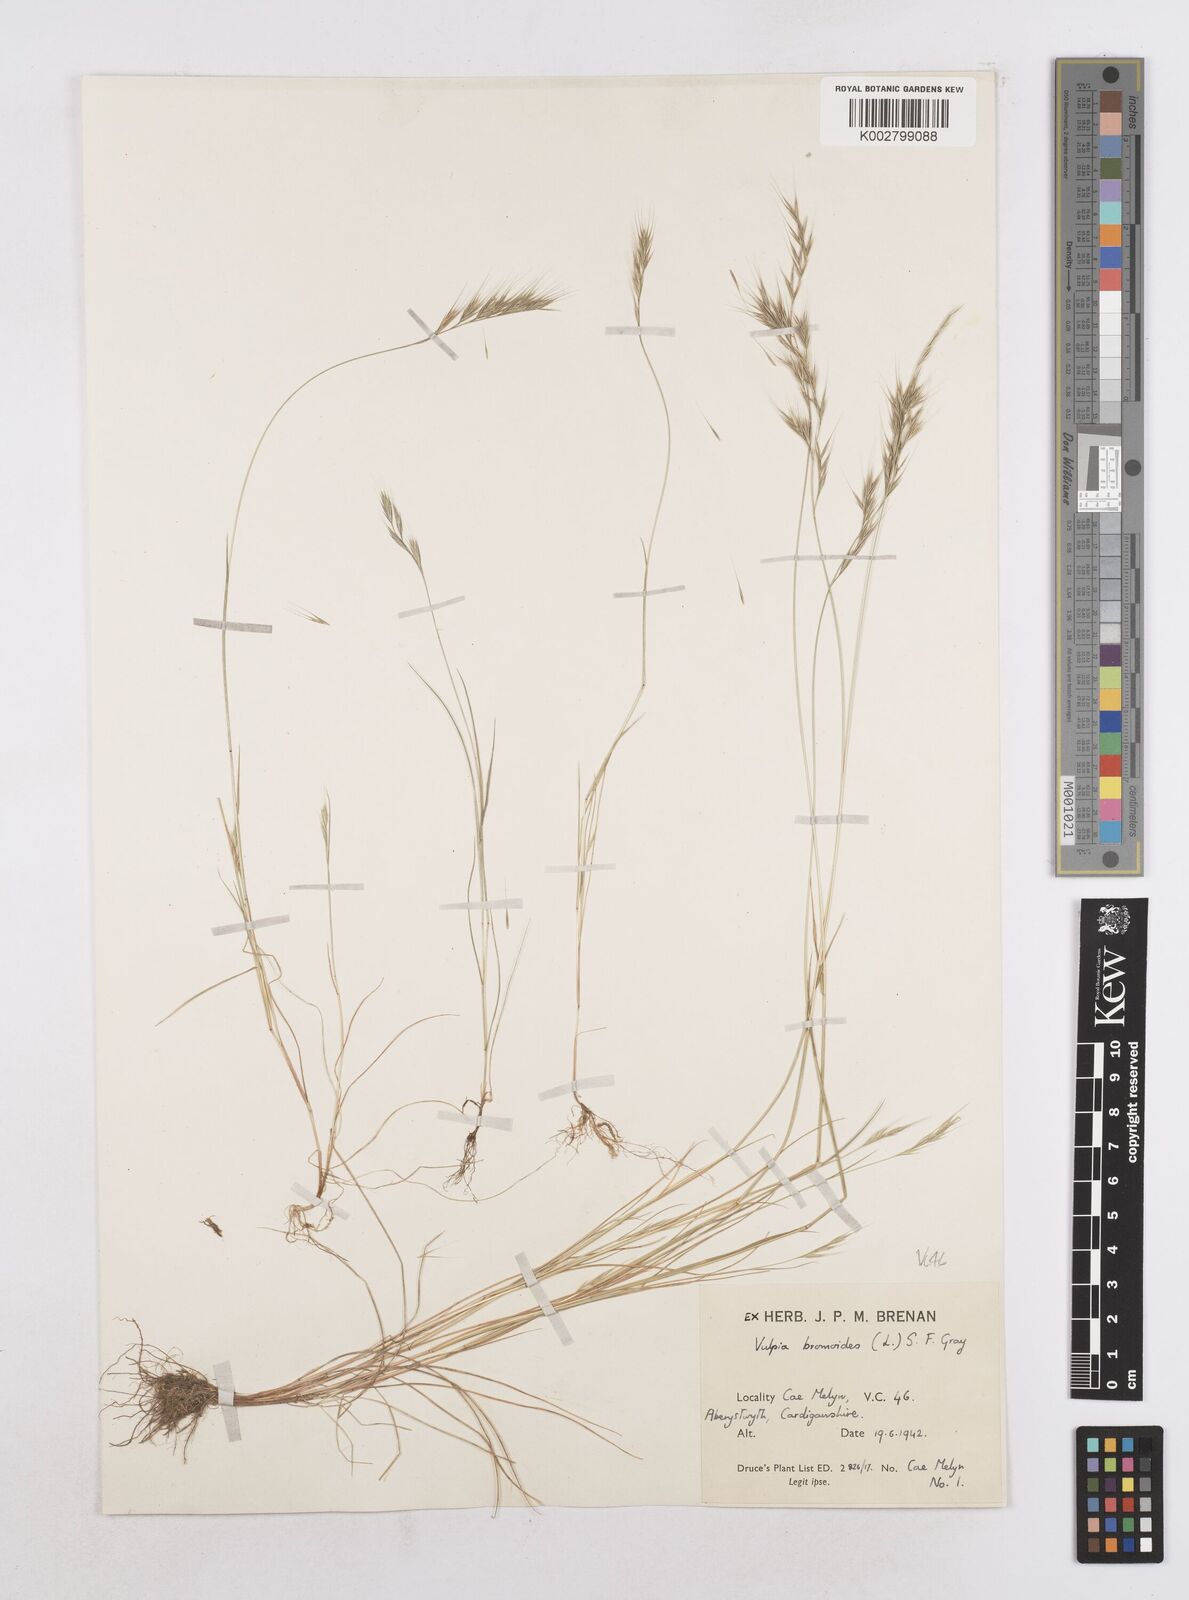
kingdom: Plantae
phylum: Tracheophyta
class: Liliopsida
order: Poales
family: Poaceae
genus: Festuca
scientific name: Festuca bromoides
